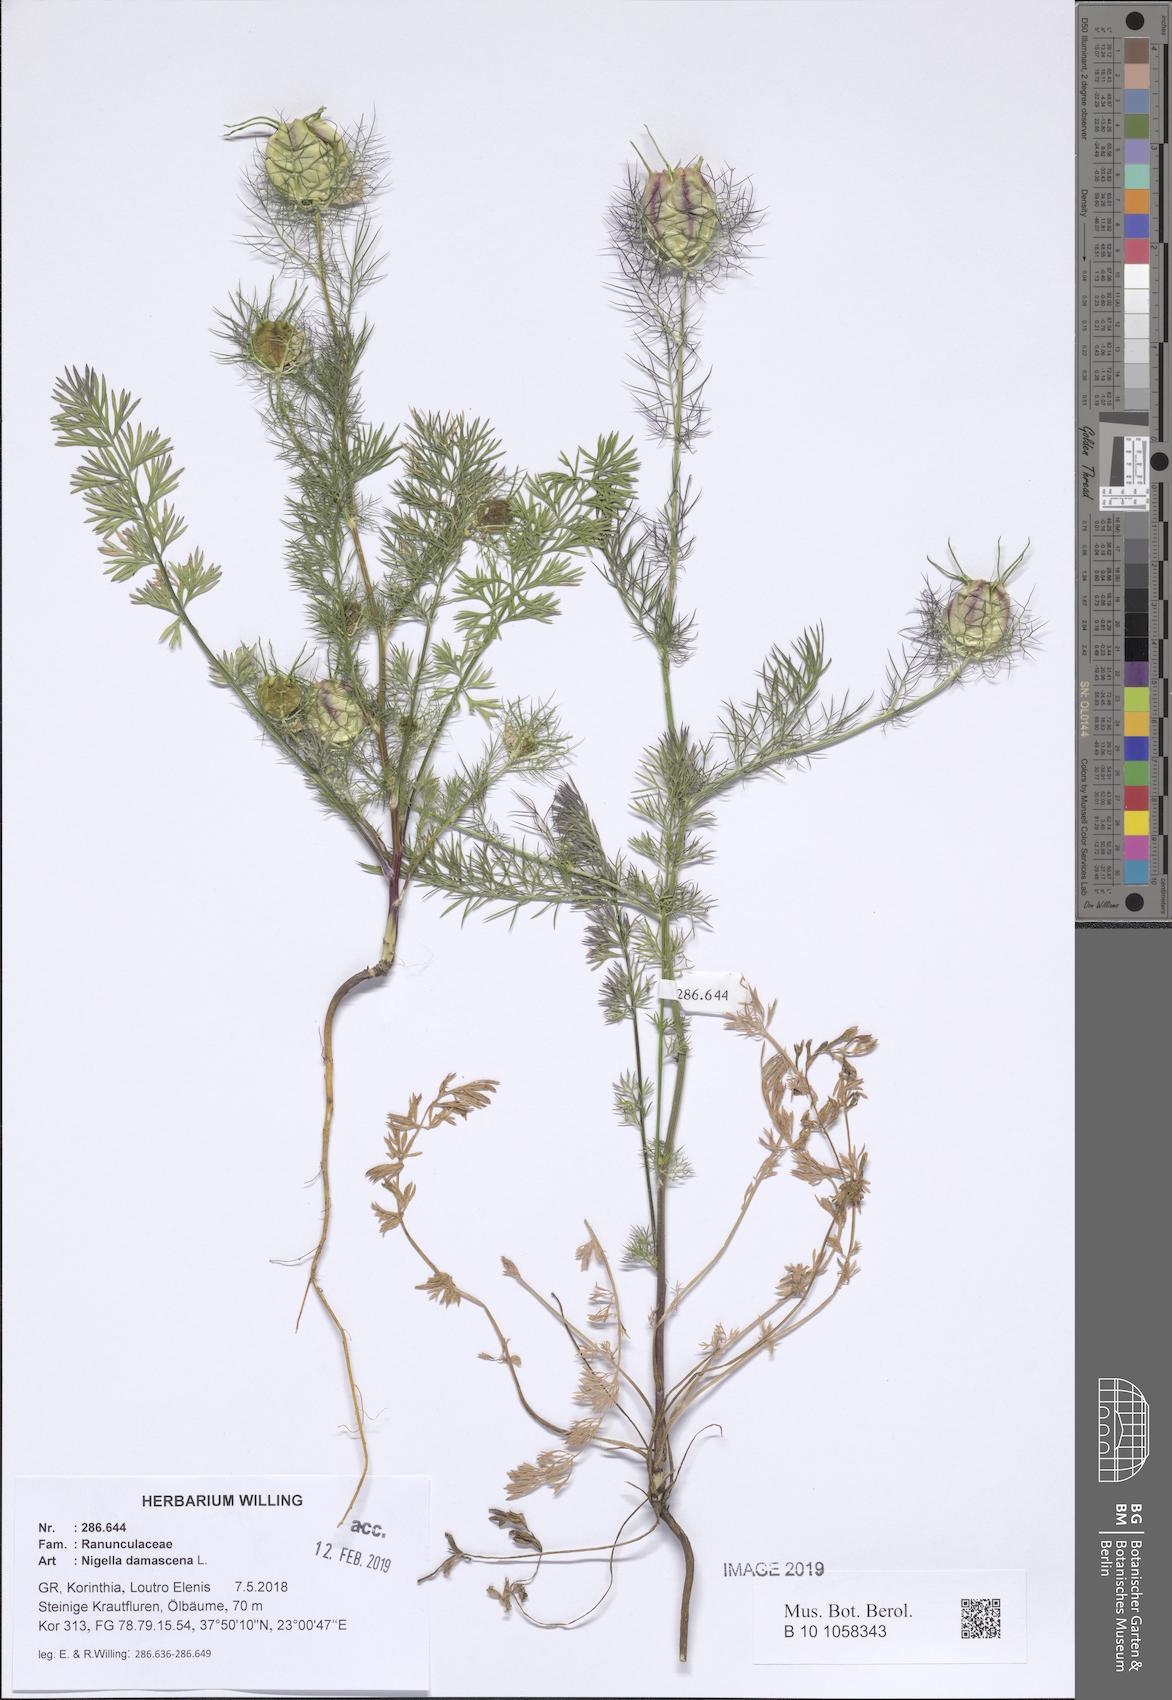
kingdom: Plantae
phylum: Tracheophyta
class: Magnoliopsida
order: Ranunculales
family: Ranunculaceae
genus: Nigella
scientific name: Nigella damascena
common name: Love-in-a-mist
